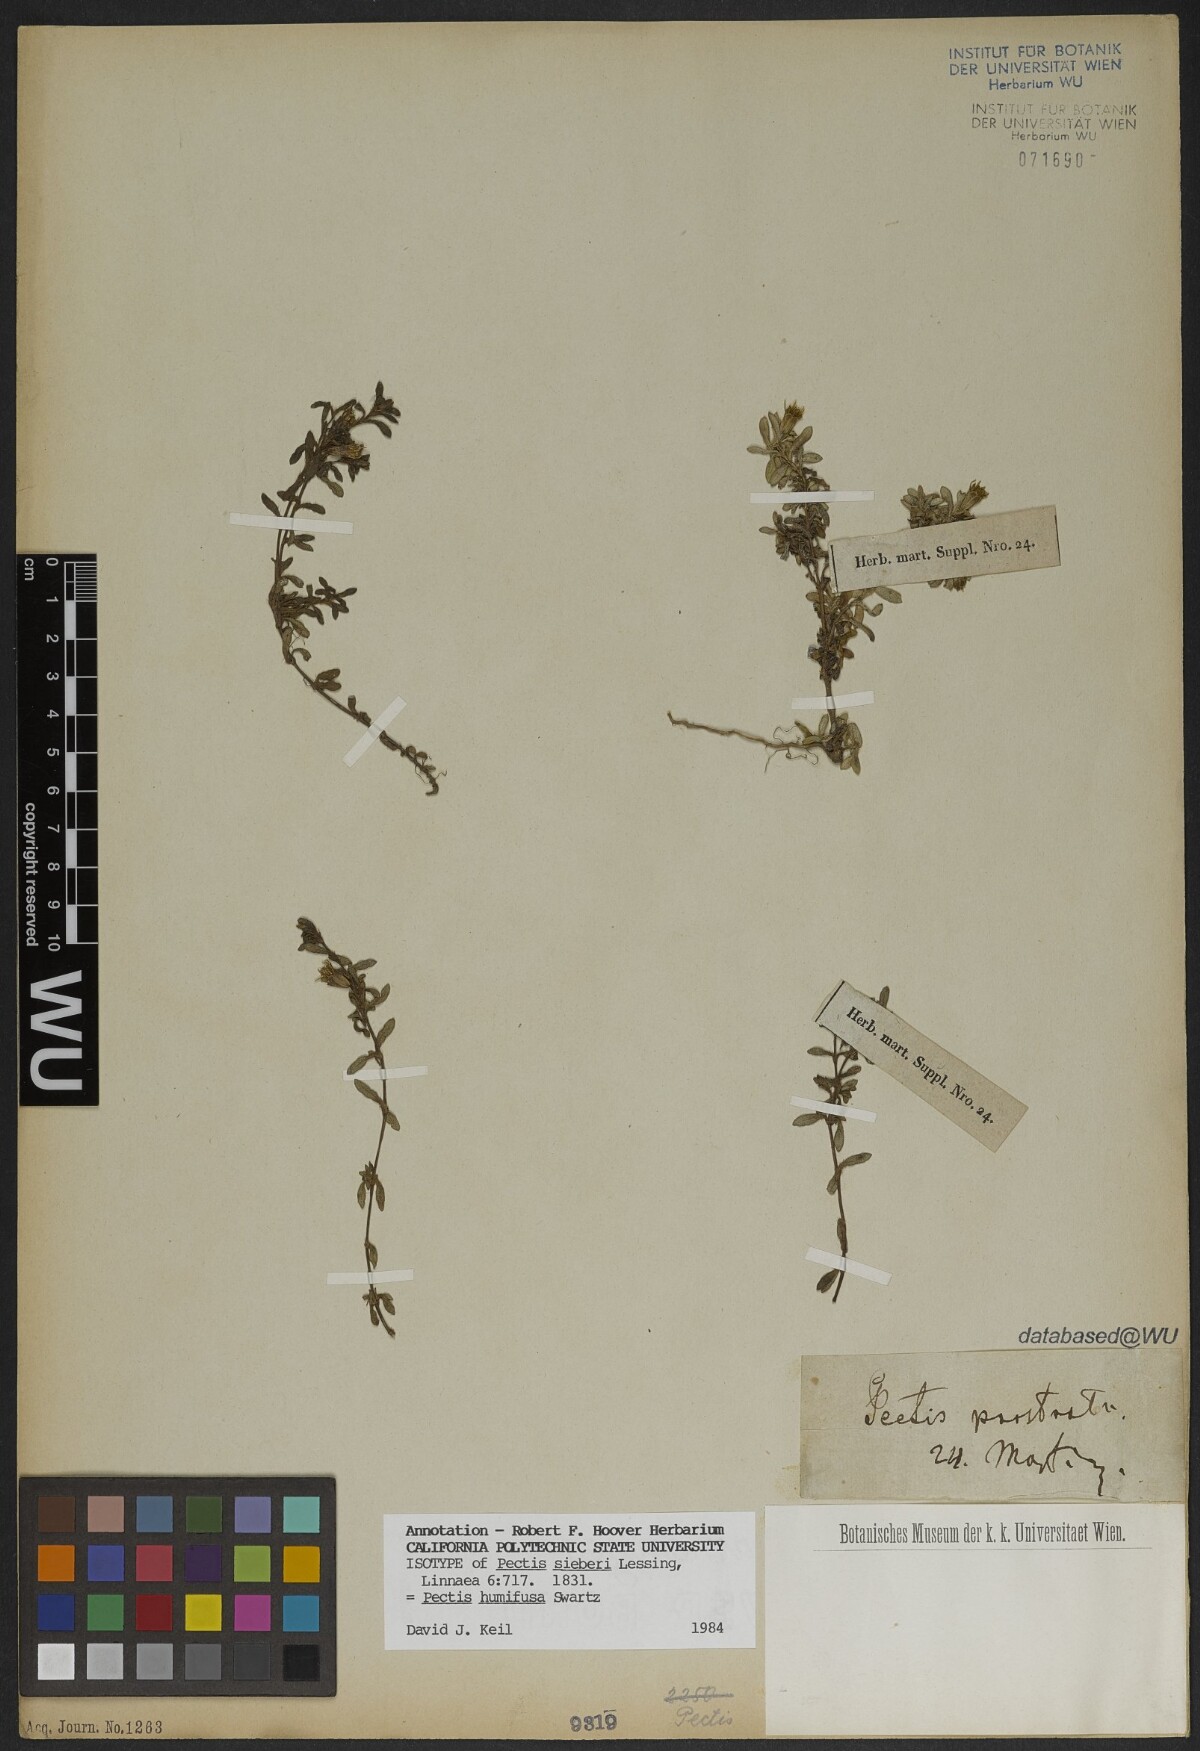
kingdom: Plantae
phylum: Tracheophyta
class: Magnoliopsida
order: Asterales
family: Asteraceae
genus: Pectis
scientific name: Pectis humifusa
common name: Yerba de san juan
